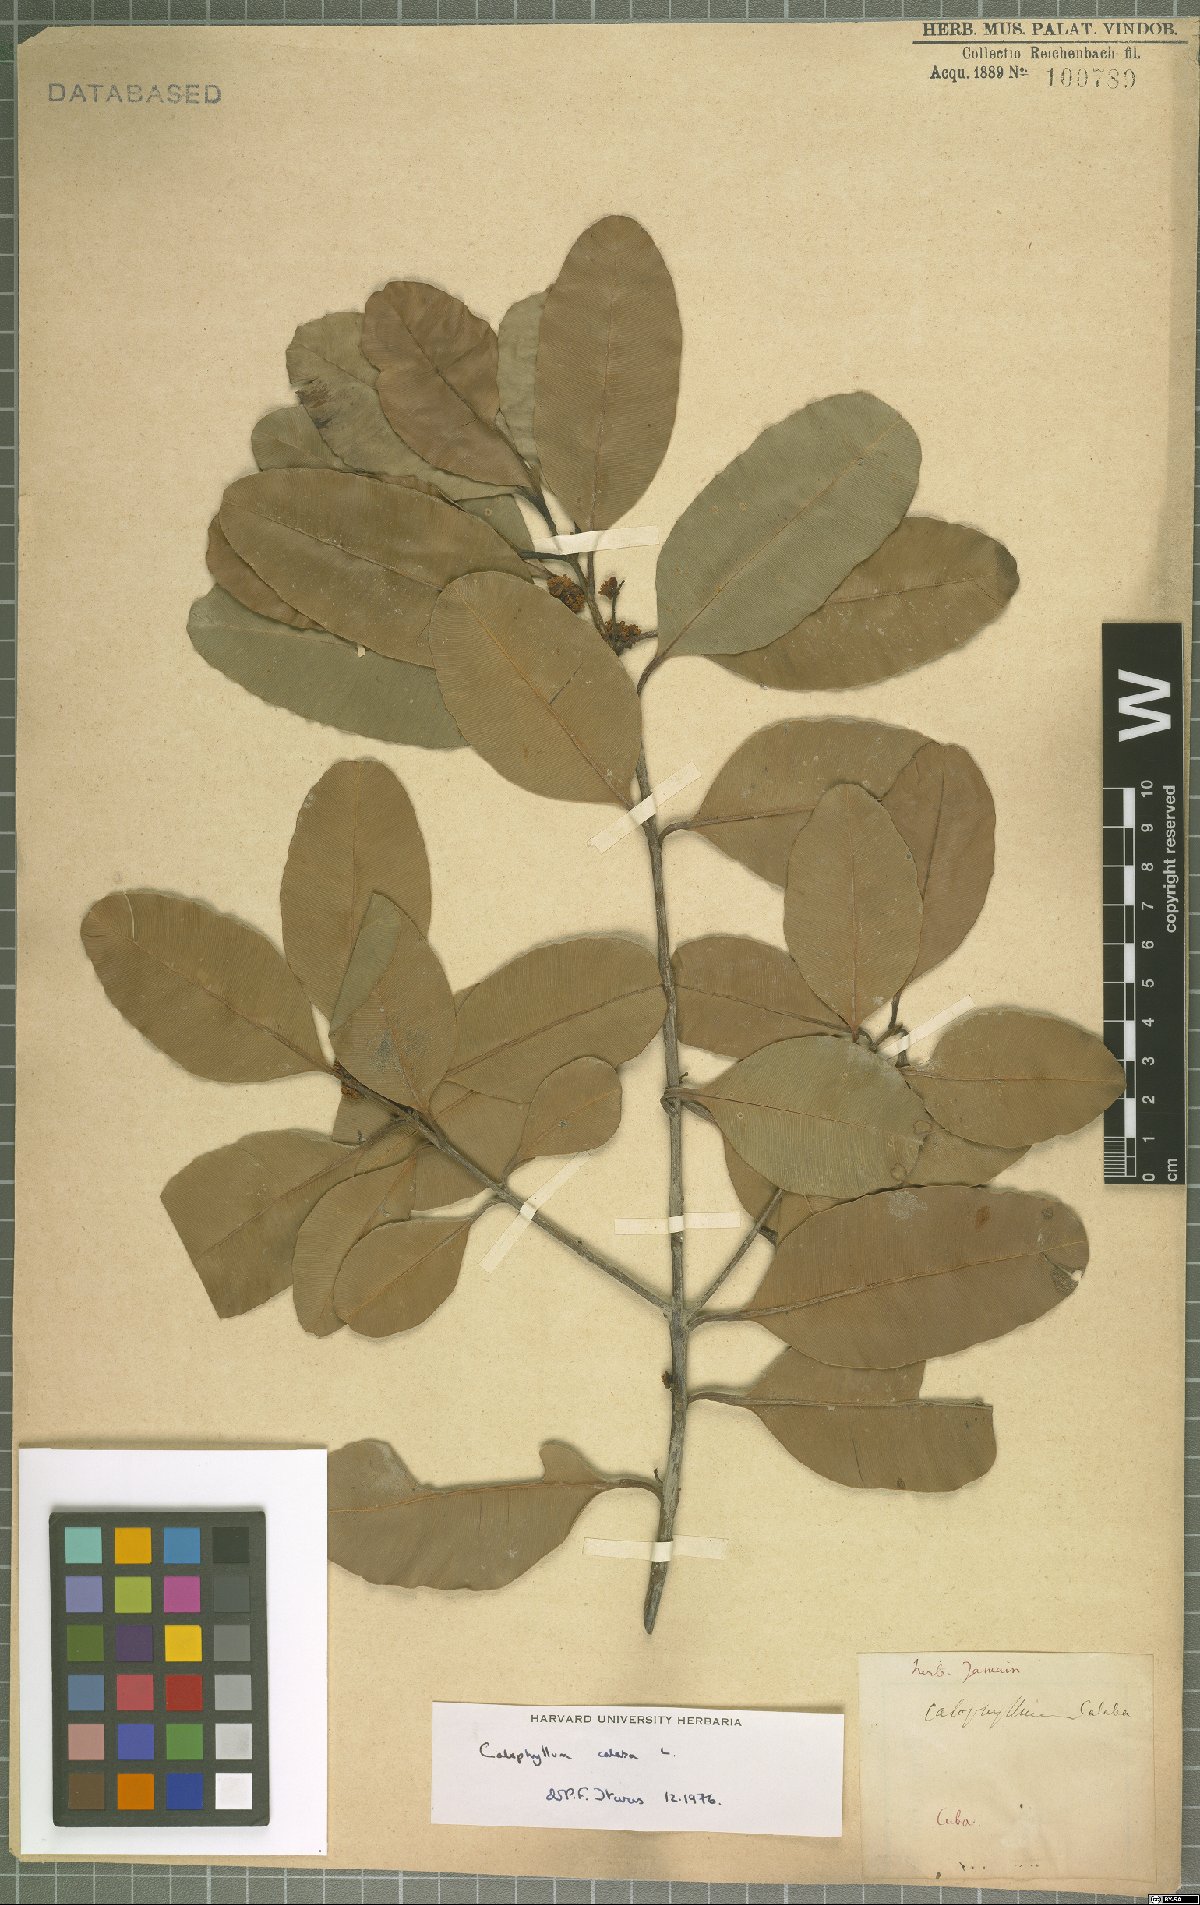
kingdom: Plantae
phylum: Tracheophyta
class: Magnoliopsida
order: Malpighiales
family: Calophyllaceae
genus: Calophyllum
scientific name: Calophyllum calaba
